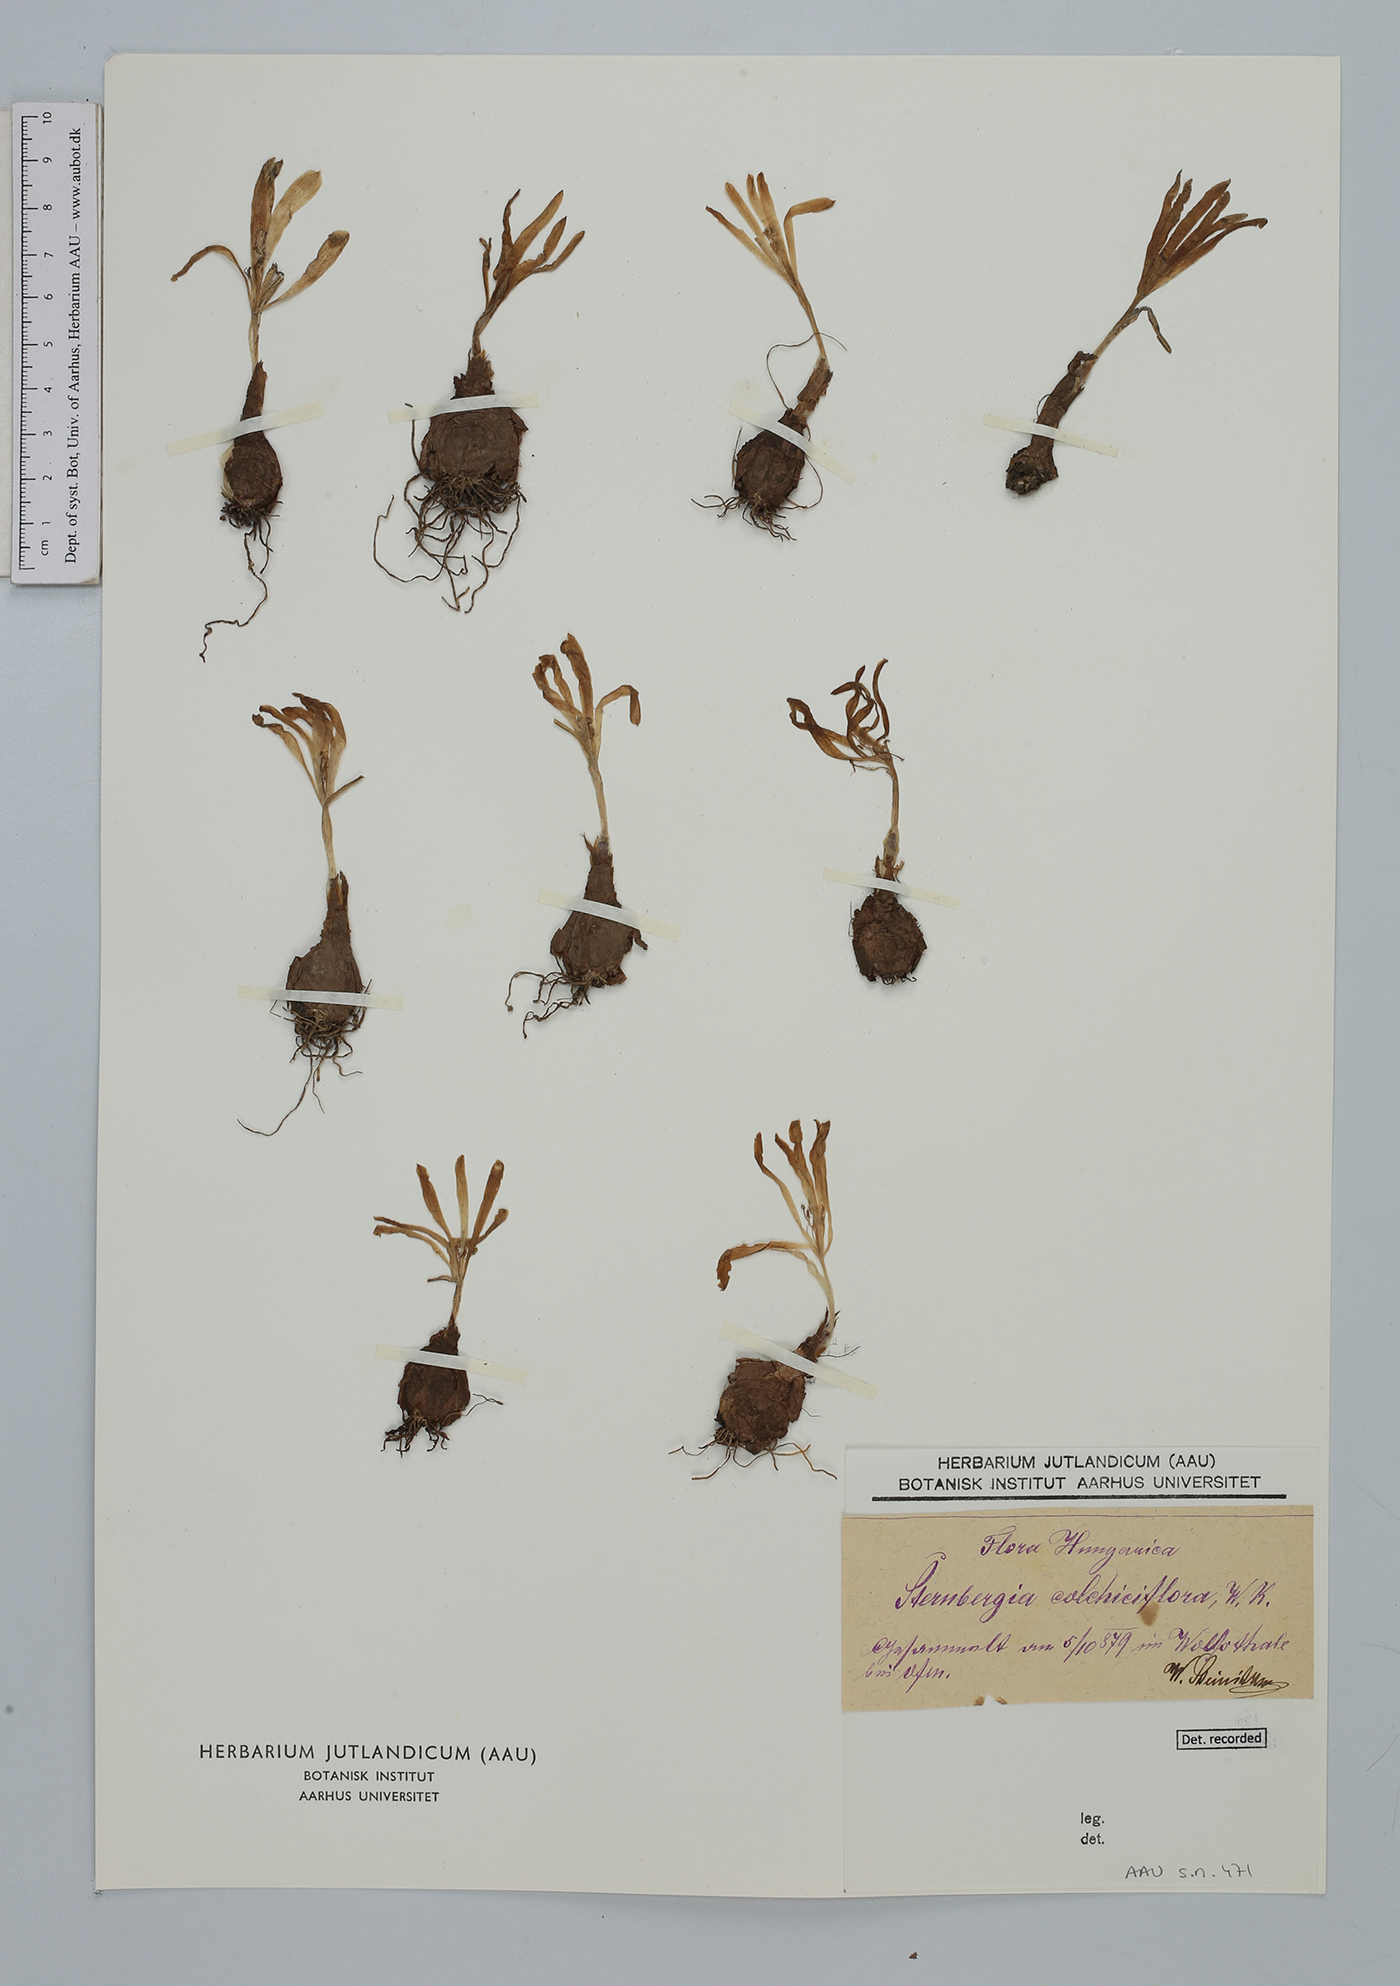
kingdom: Plantae
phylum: Tracheophyta
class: Liliopsida
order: Asparagales
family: Amaryllidaceae
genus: Sternbergia
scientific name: Sternbergia colchiciflora
